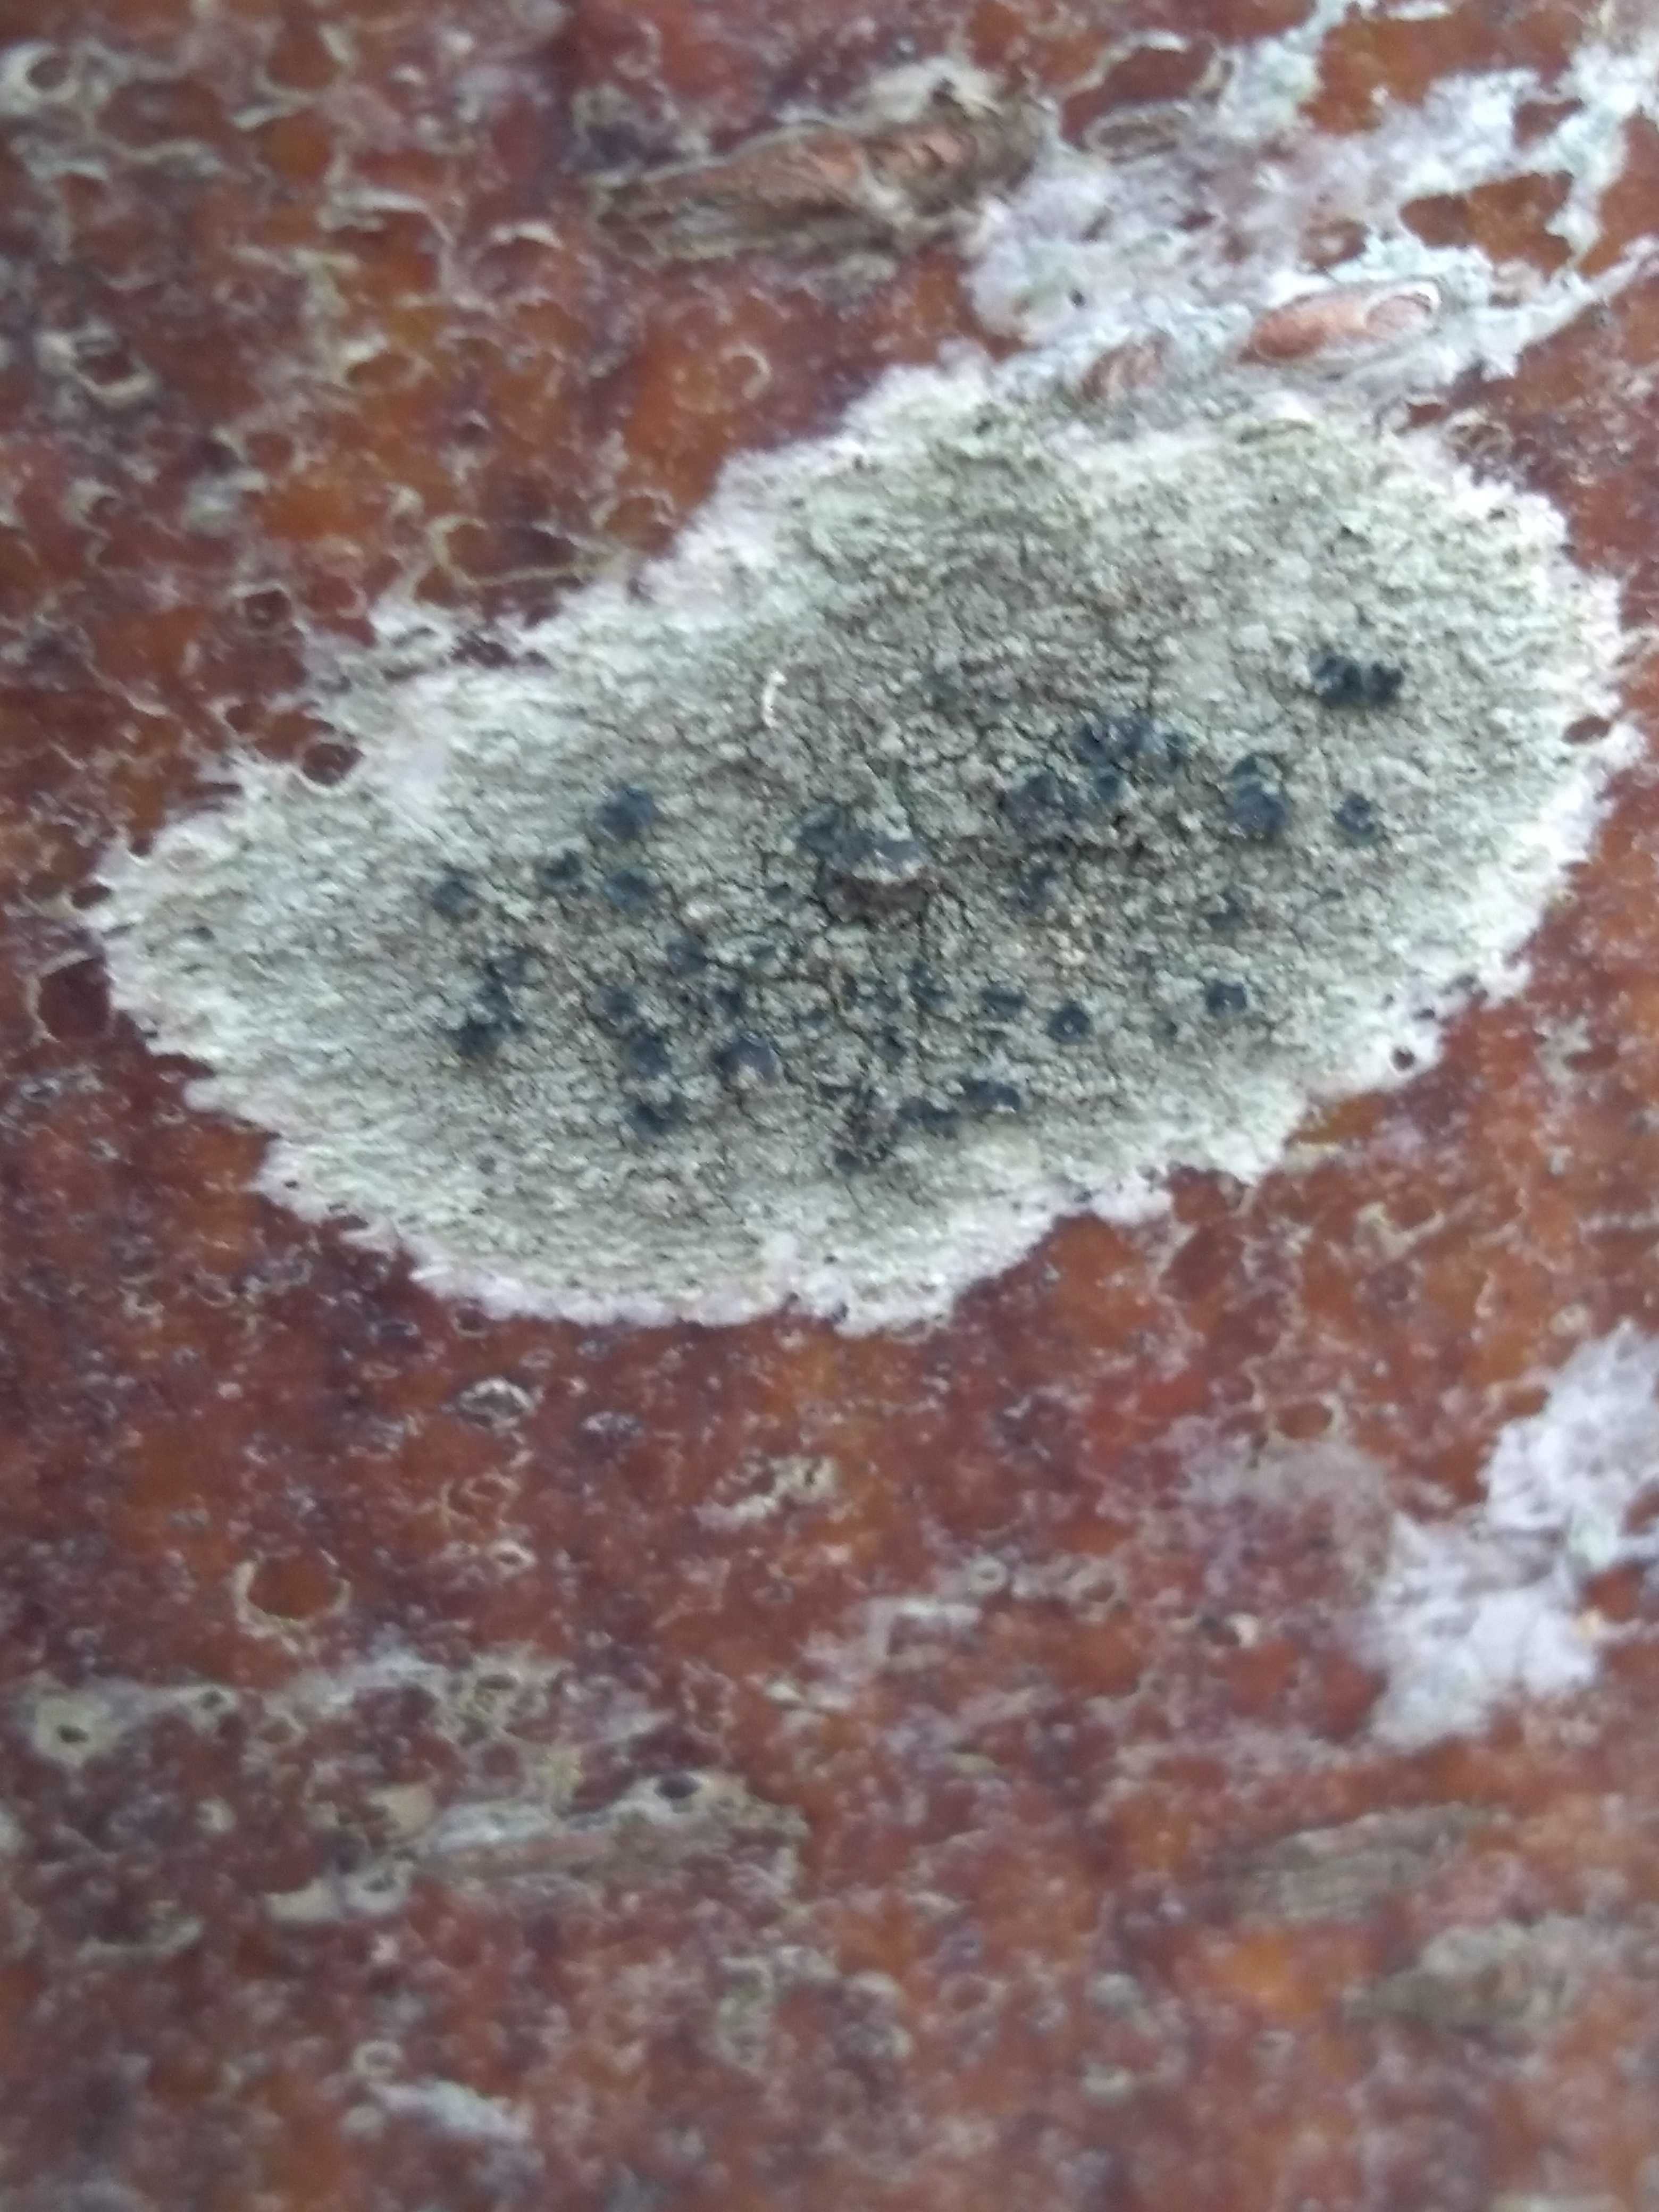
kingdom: Fungi
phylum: Ascomycota
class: Lecanoromycetes
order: Lecanorales
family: Lecanoraceae
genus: Lecidella
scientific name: Lecidella elaeochroma
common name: grågrøn skivelav
